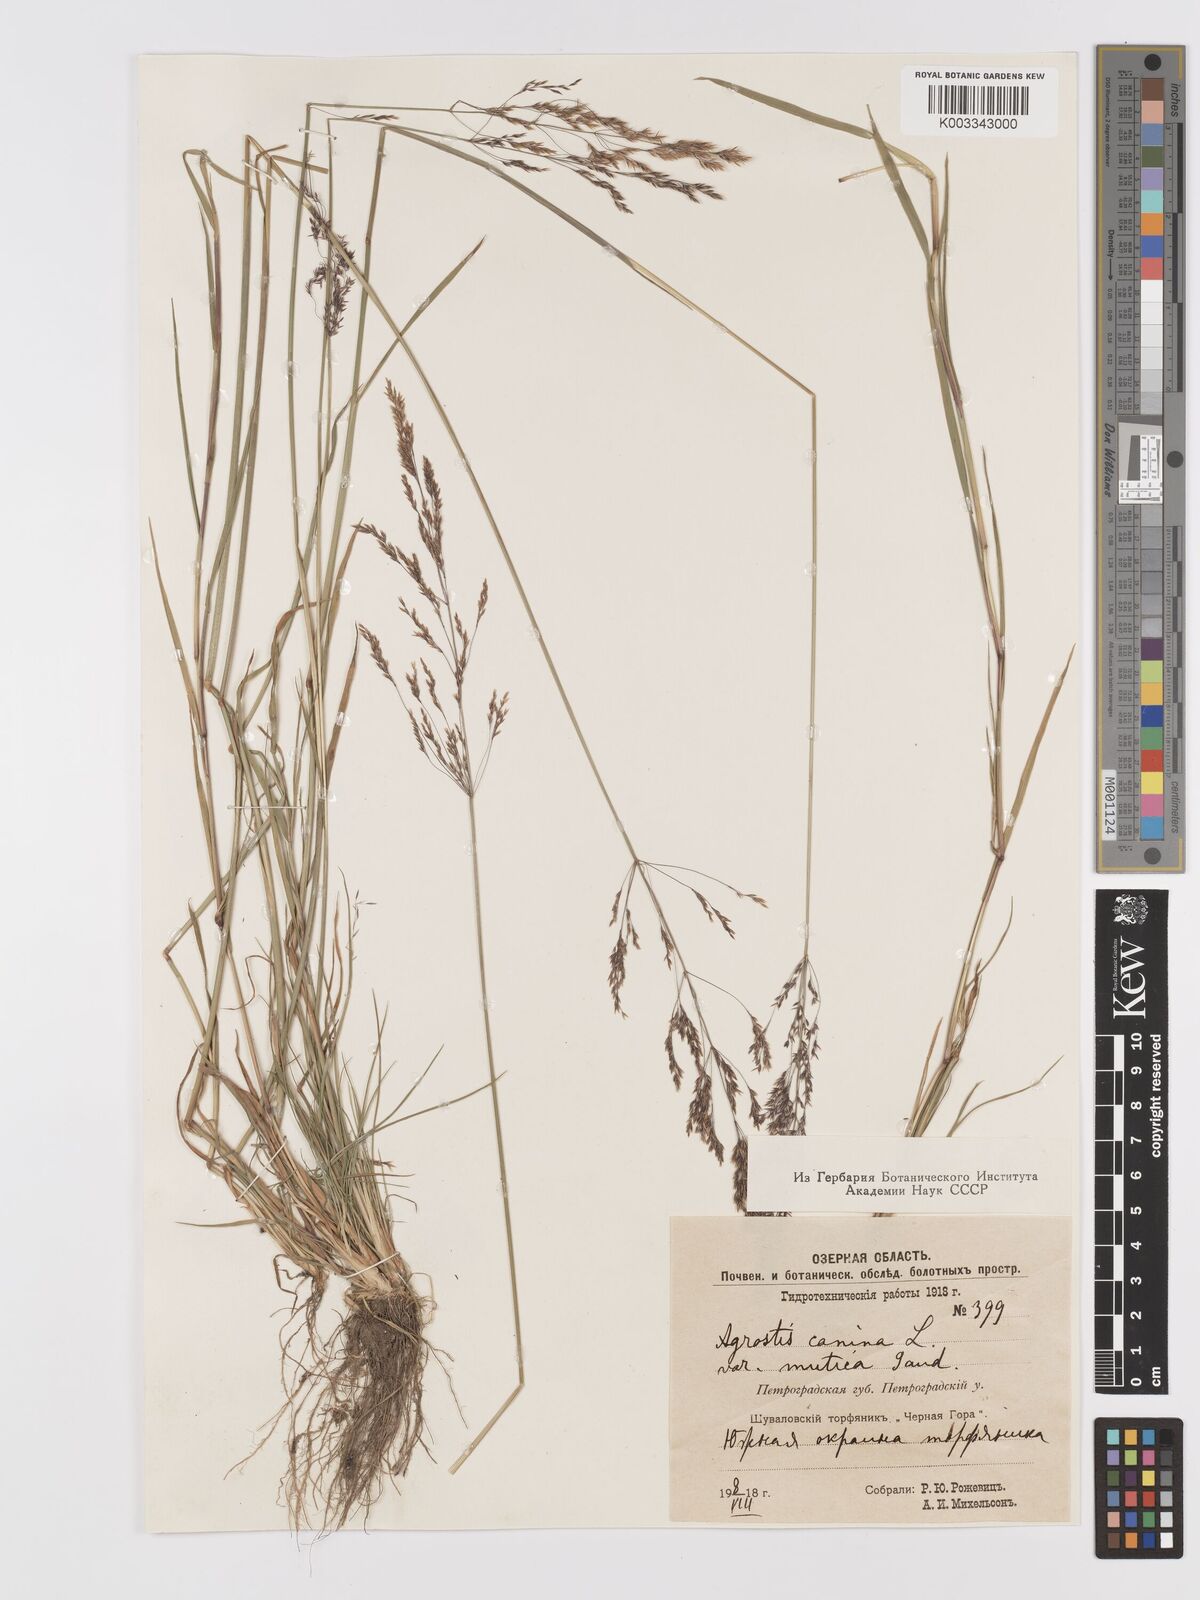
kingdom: Plantae
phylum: Tracheophyta
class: Liliopsida
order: Poales
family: Poaceae
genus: Agrostis
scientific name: Agrostis canina
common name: Velvet bent
